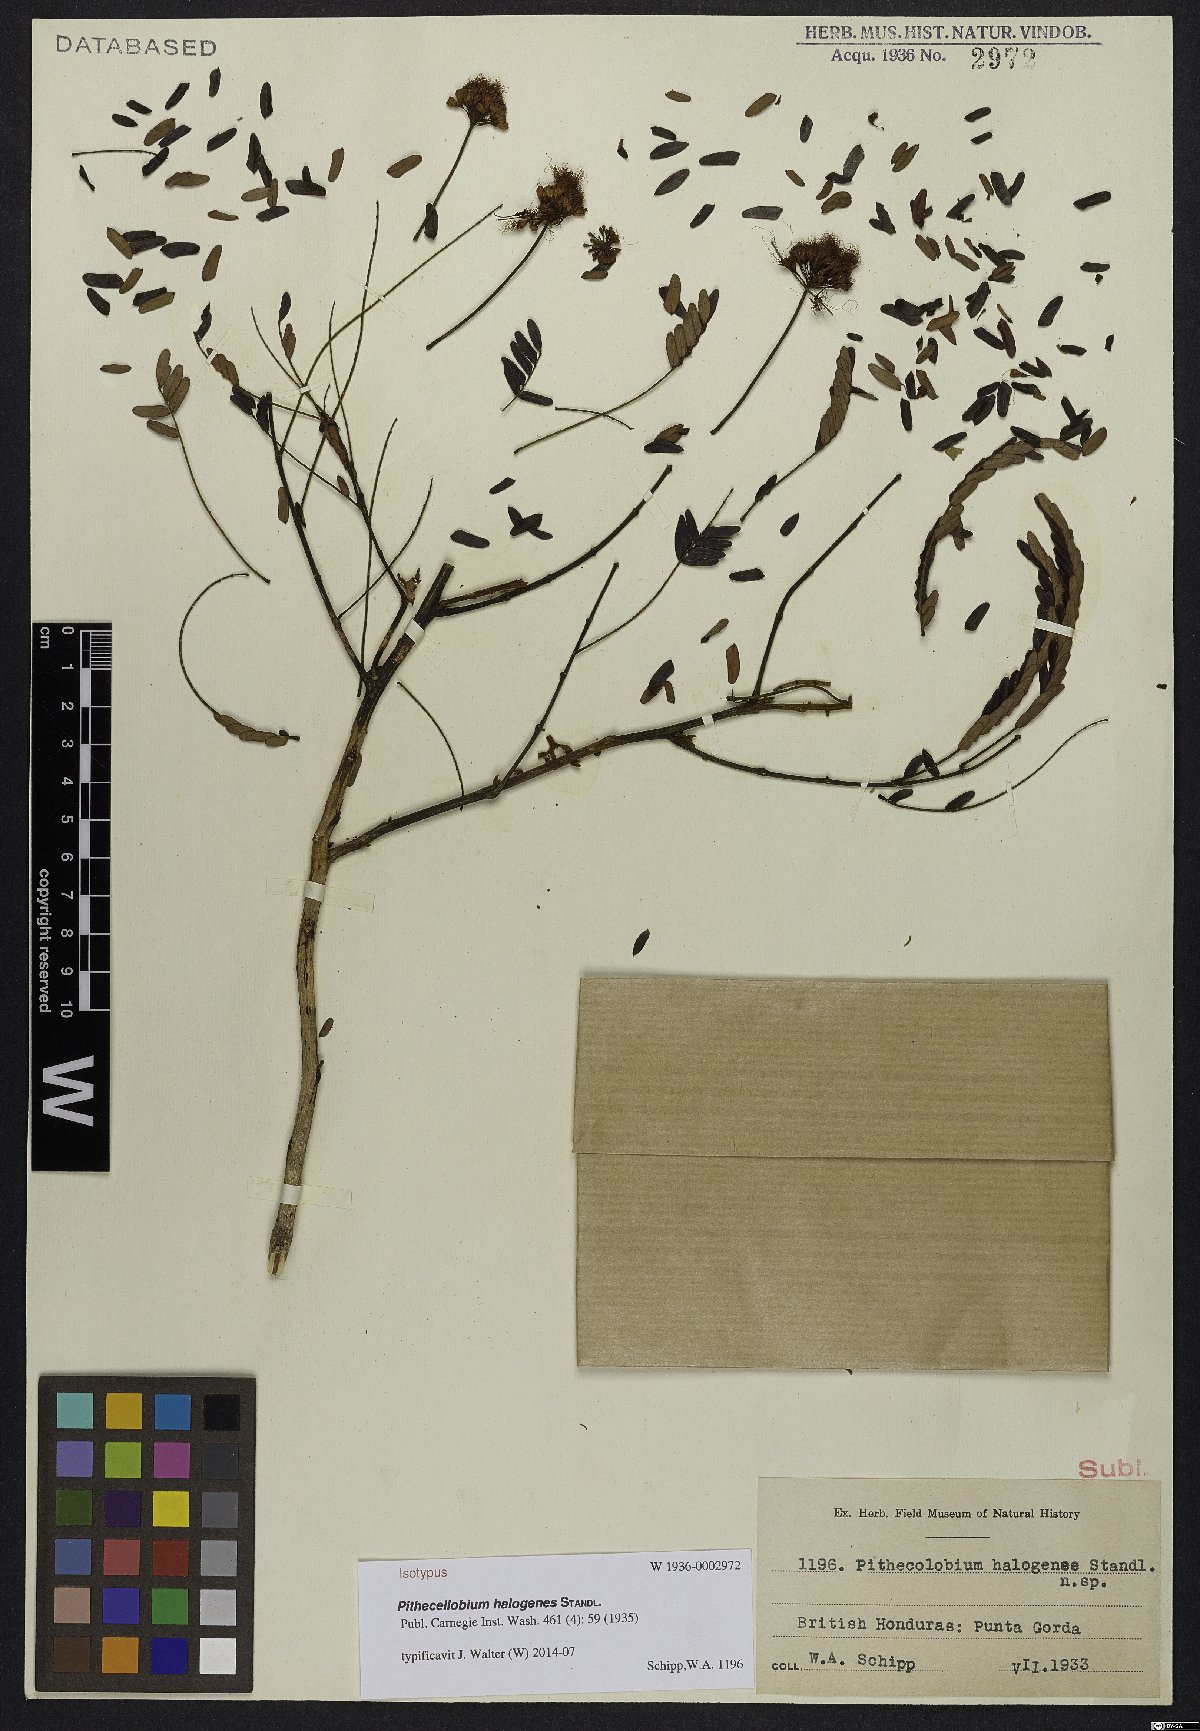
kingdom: Plantae
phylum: Tracheophyta
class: Magnoliopsida
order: Fabales
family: Fabaceae
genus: Jupunba
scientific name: Jupunba idiopoda
